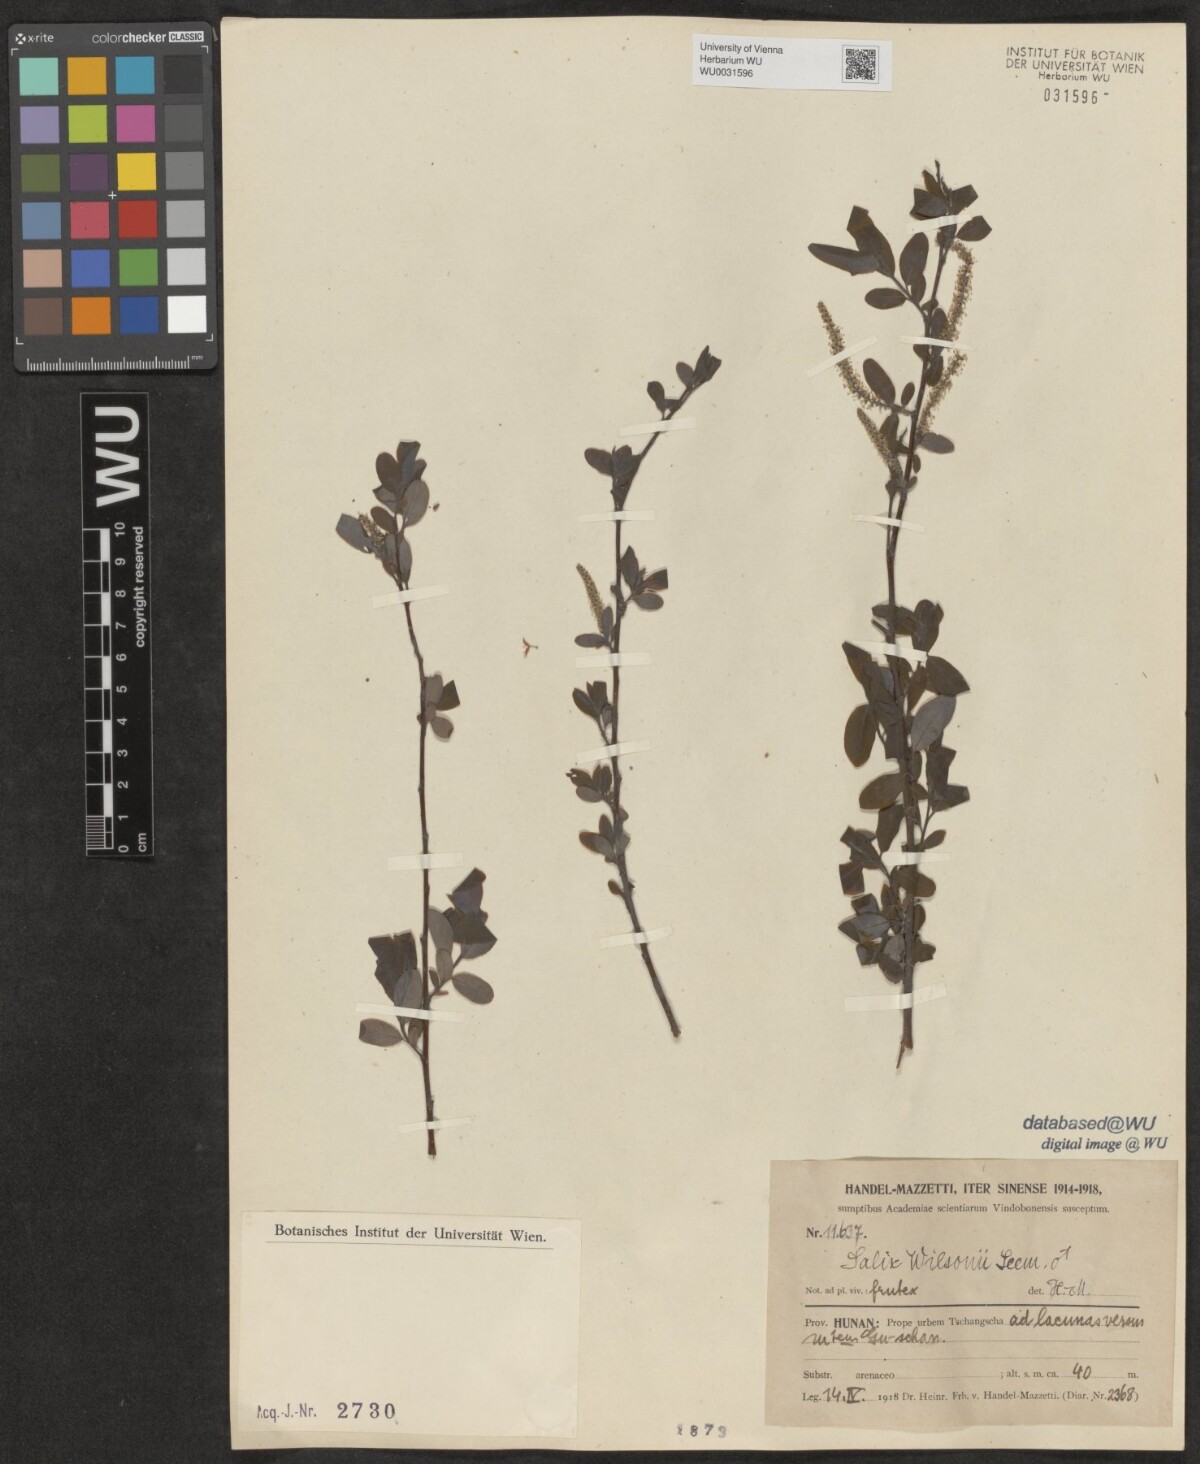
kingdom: Plantae
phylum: Tracheophyta
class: Magnoliopsida
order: Malpighiales
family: Salicaceae
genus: Salix
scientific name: Salix wilsonii
